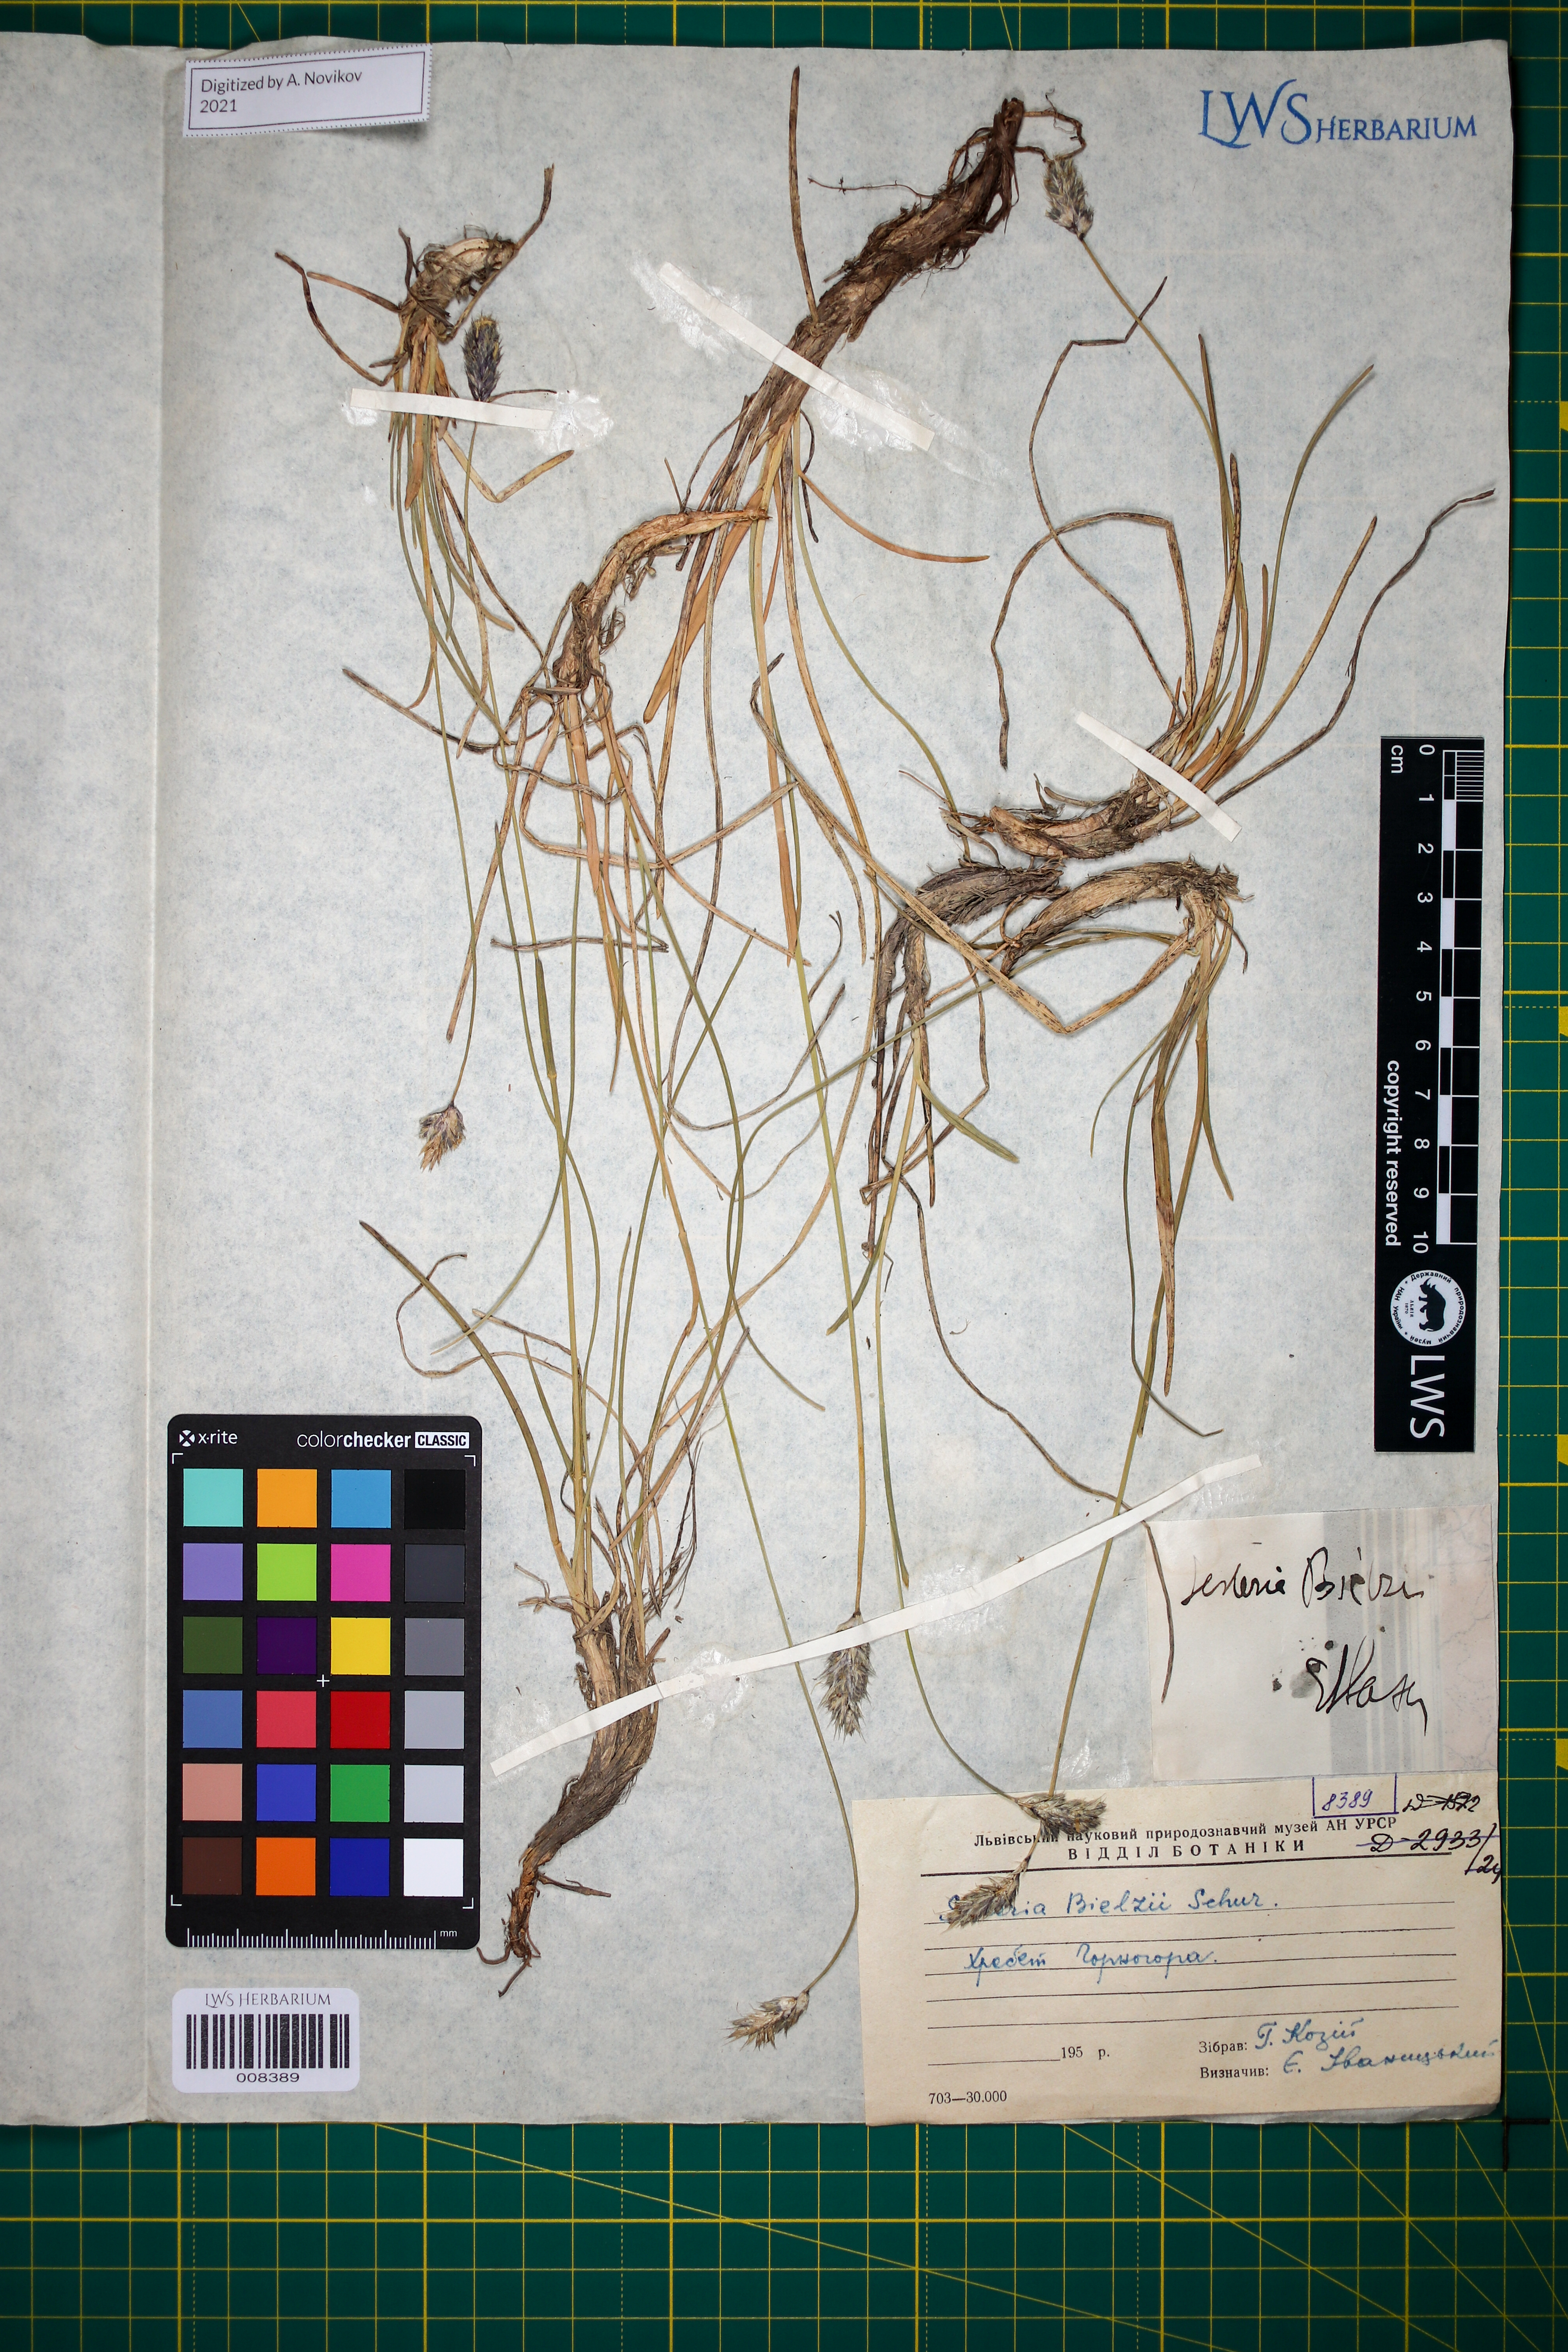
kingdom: Plantae
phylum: Tracheophyta
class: Liliopsida
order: Poales
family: Poaceae
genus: Sesleria
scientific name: Sesleria bielzii
